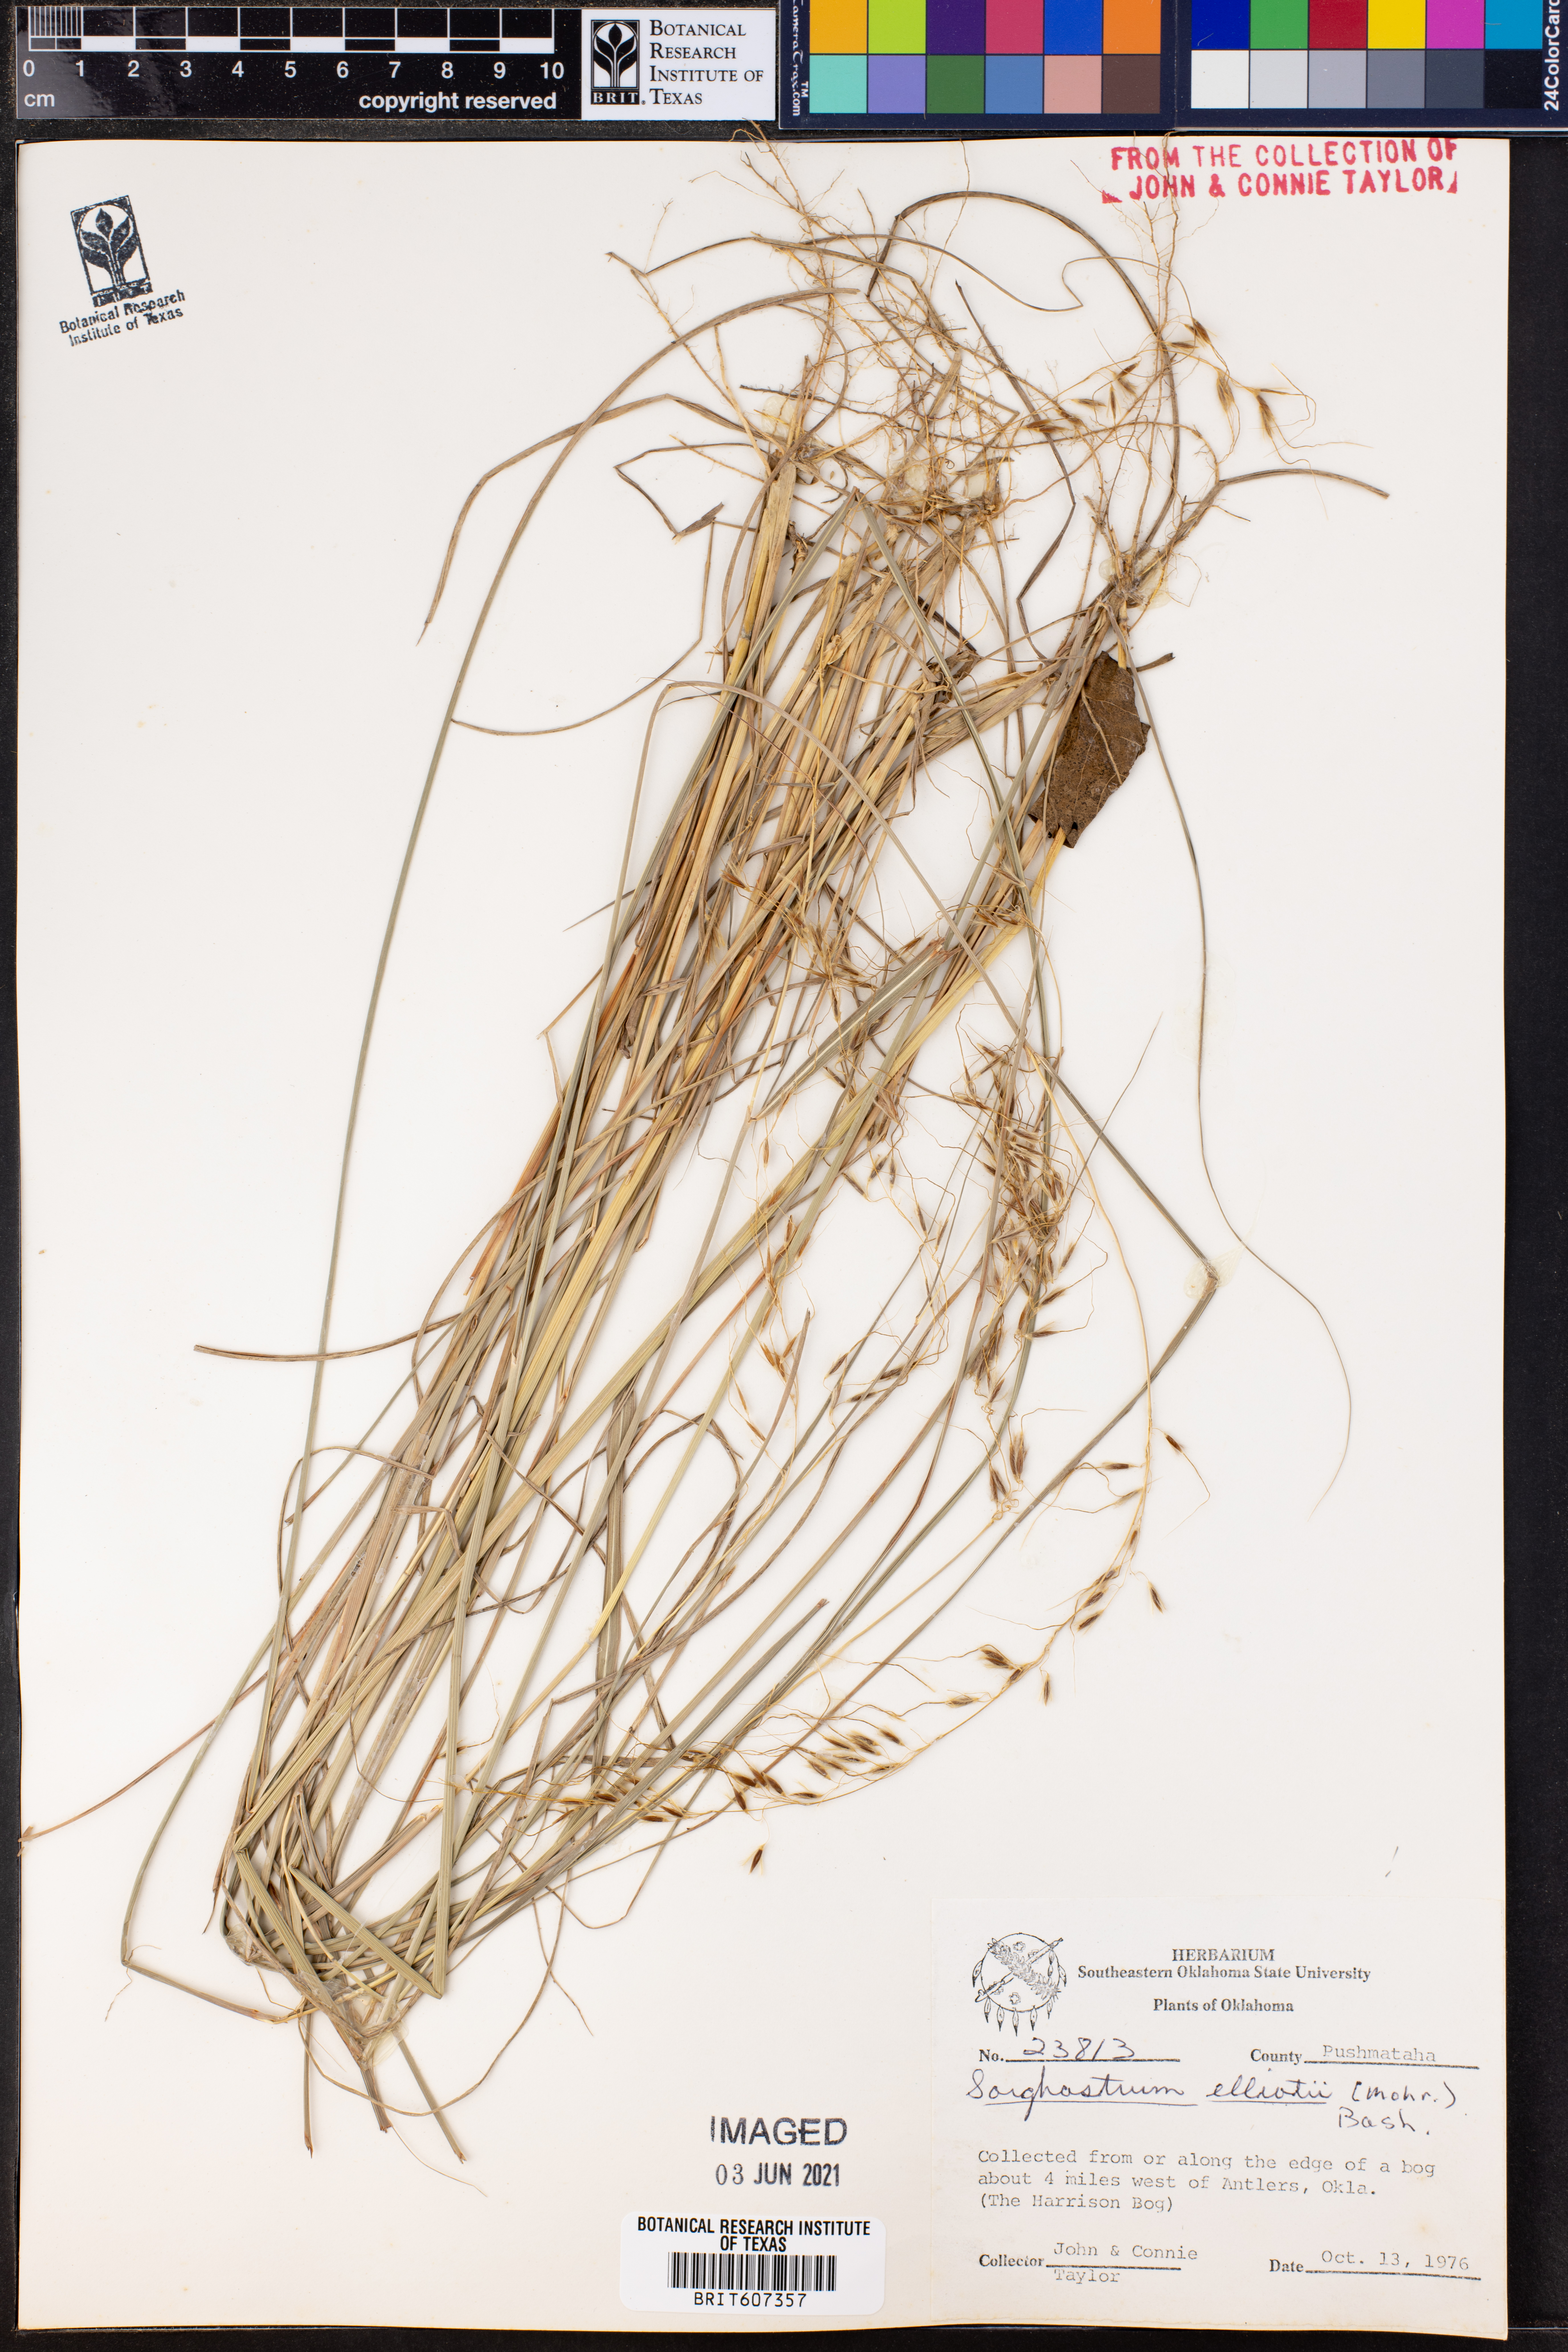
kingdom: Plantae
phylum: Tracheophyta
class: Liliopsida
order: Poales
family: Poaceae
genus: Sorghastrum
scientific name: Sorghastrum elliottii
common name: Slender indian grass
